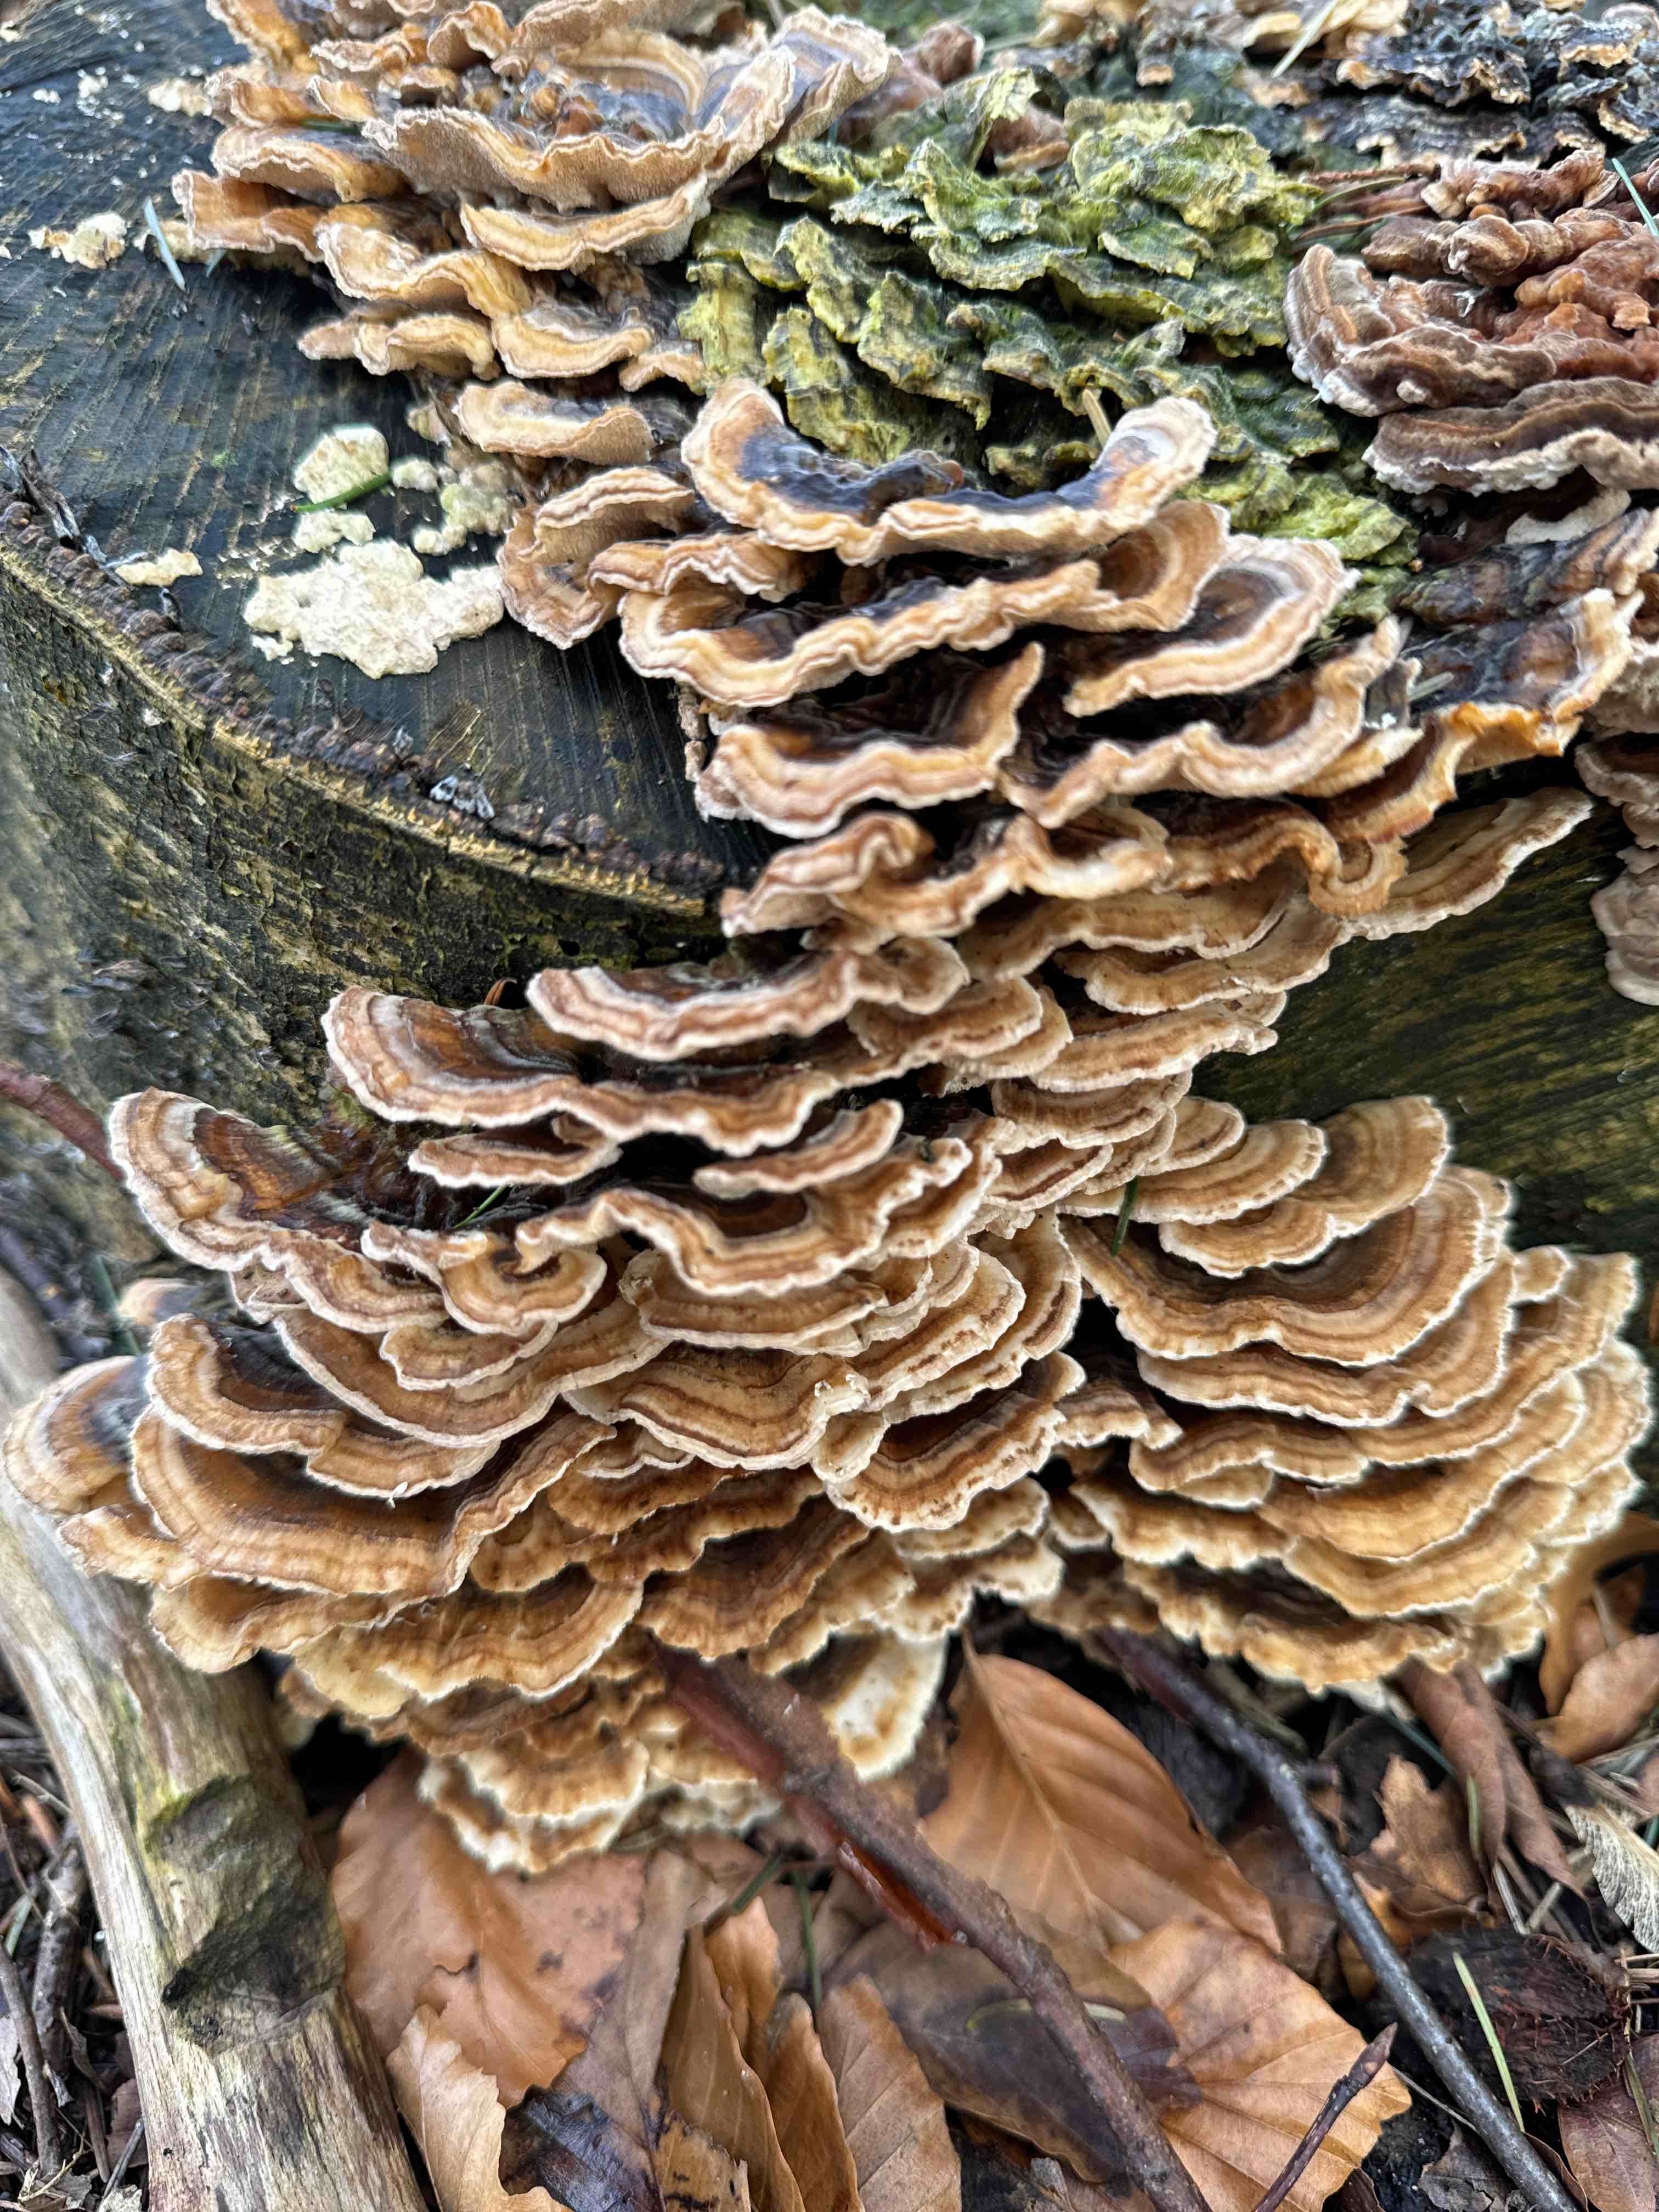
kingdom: Fungi
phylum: Basidiomycota
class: Agaricomycetes
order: Polyporales
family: Polyporaceae
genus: Trametes
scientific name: Trametes versicolor
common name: broget læderporesvamp
